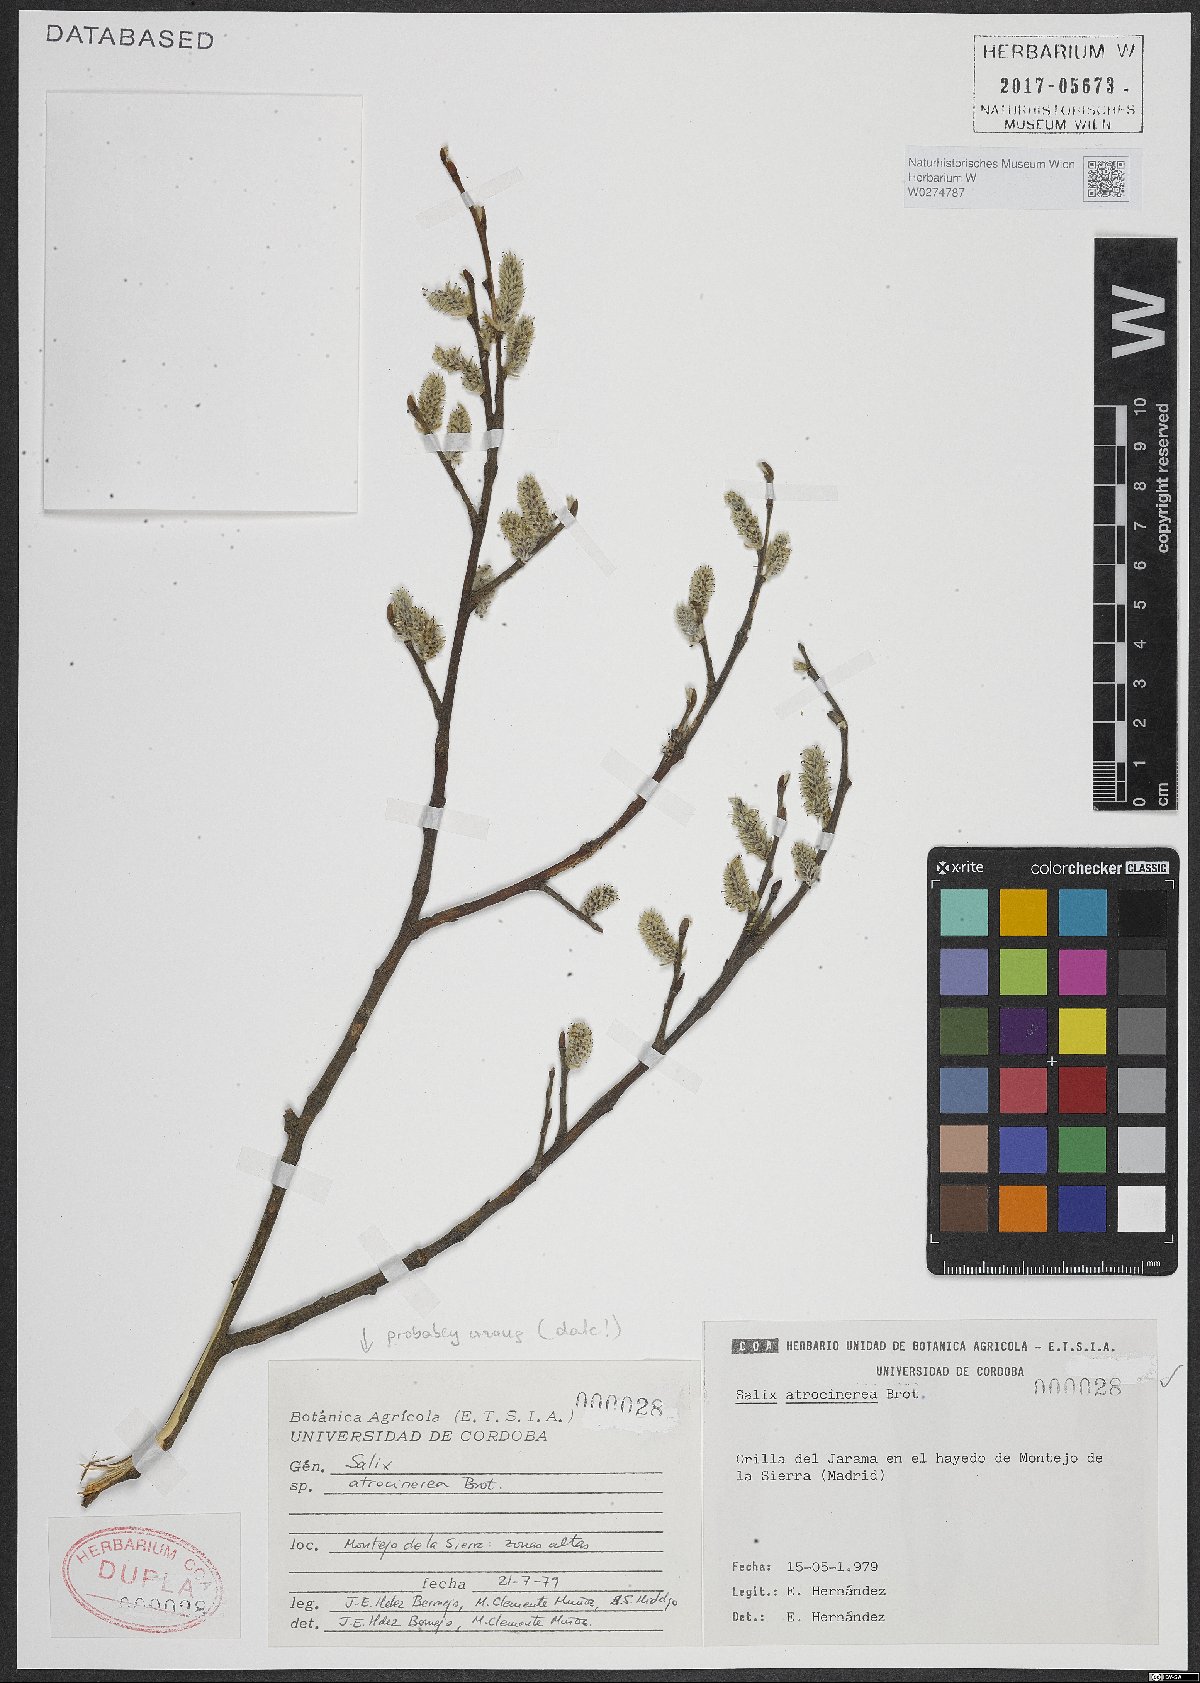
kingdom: Plantae
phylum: Tracheophyta
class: Magnoliopsida
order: Malpighiales
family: Salicaceae
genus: Salix
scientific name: Salix atrocinerea
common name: Rusty willow
